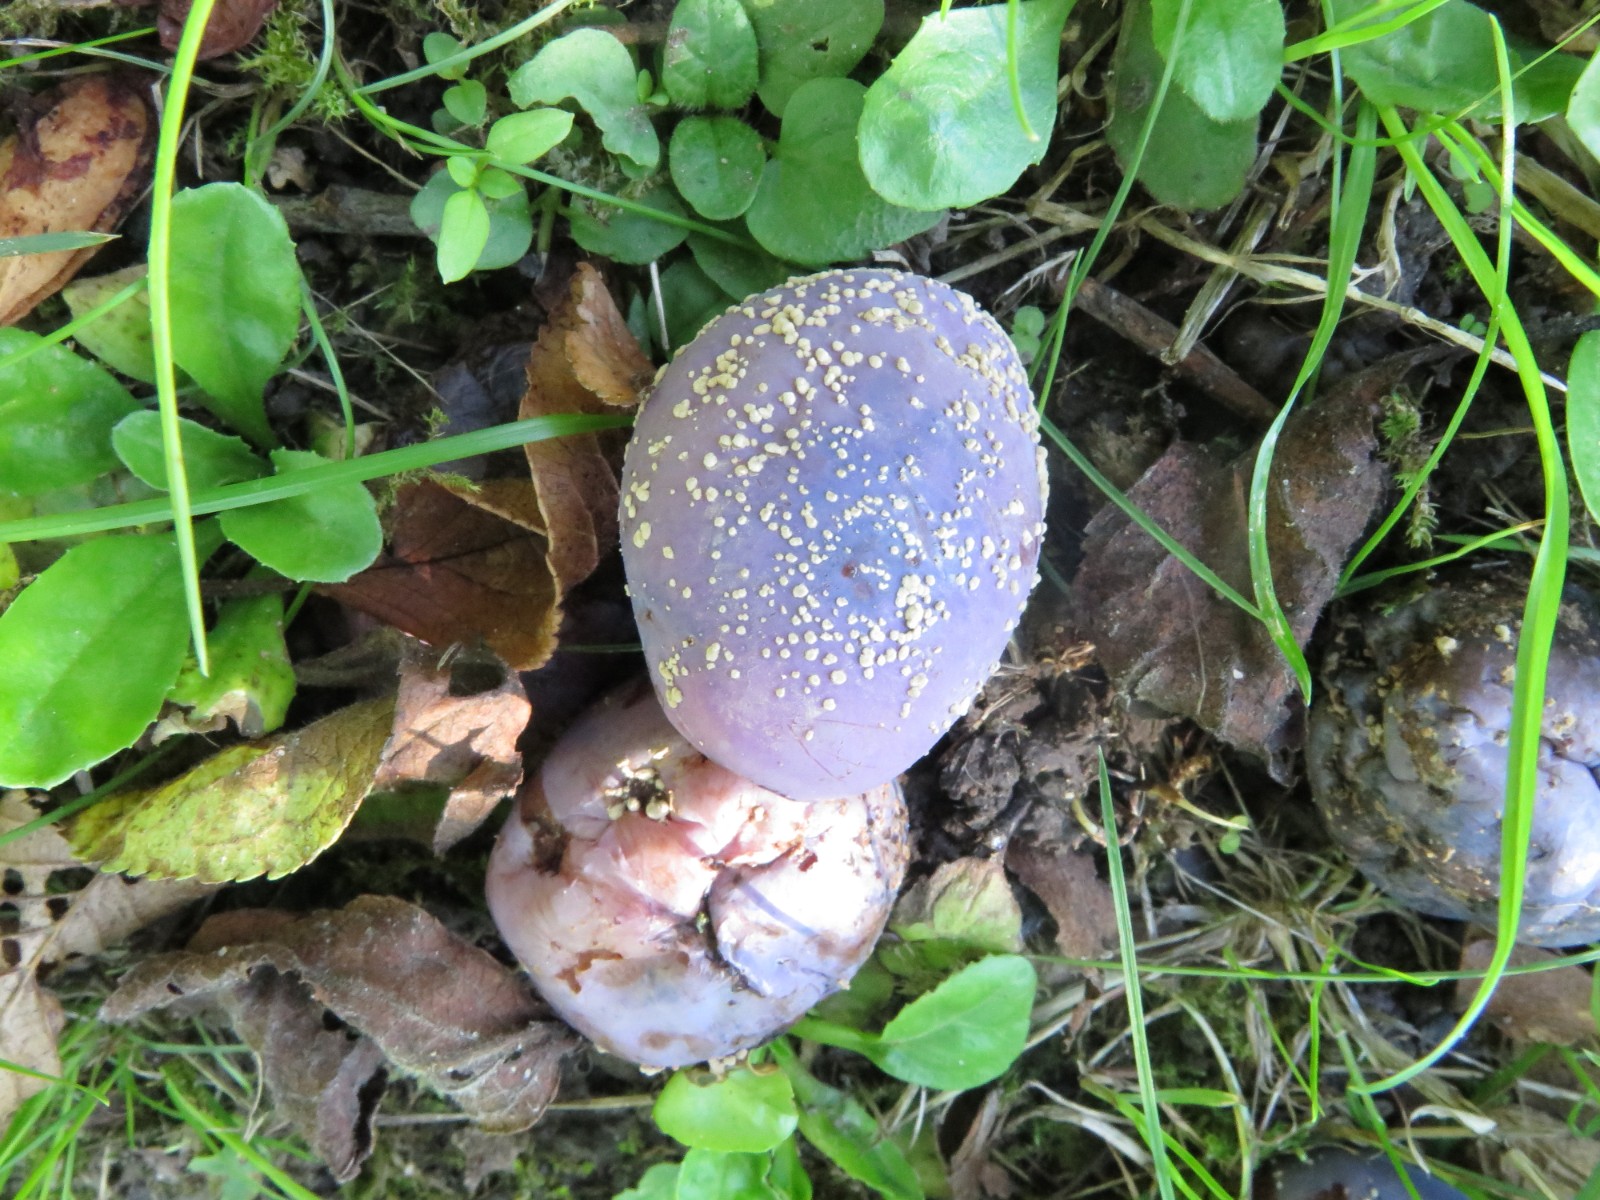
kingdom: Fungi
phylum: Ascomycota
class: Leotiomycetes
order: Helotiales
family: Sclerotiniaceae
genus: Monilinia
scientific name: Monilinia laxa
